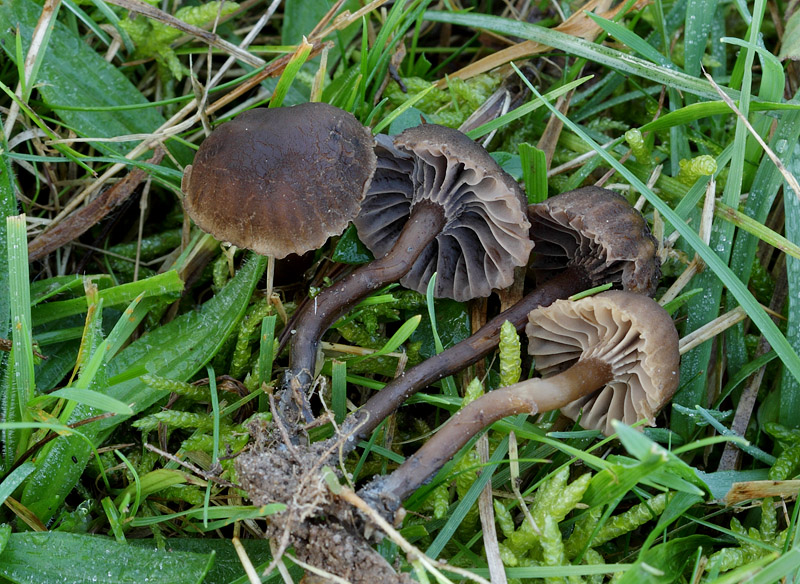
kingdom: Fungi
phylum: Basidiomycota
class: Agaricomycetes
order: Agaricales
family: Clavariaceae
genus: Hodophilus
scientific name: Hodophilus foetens
